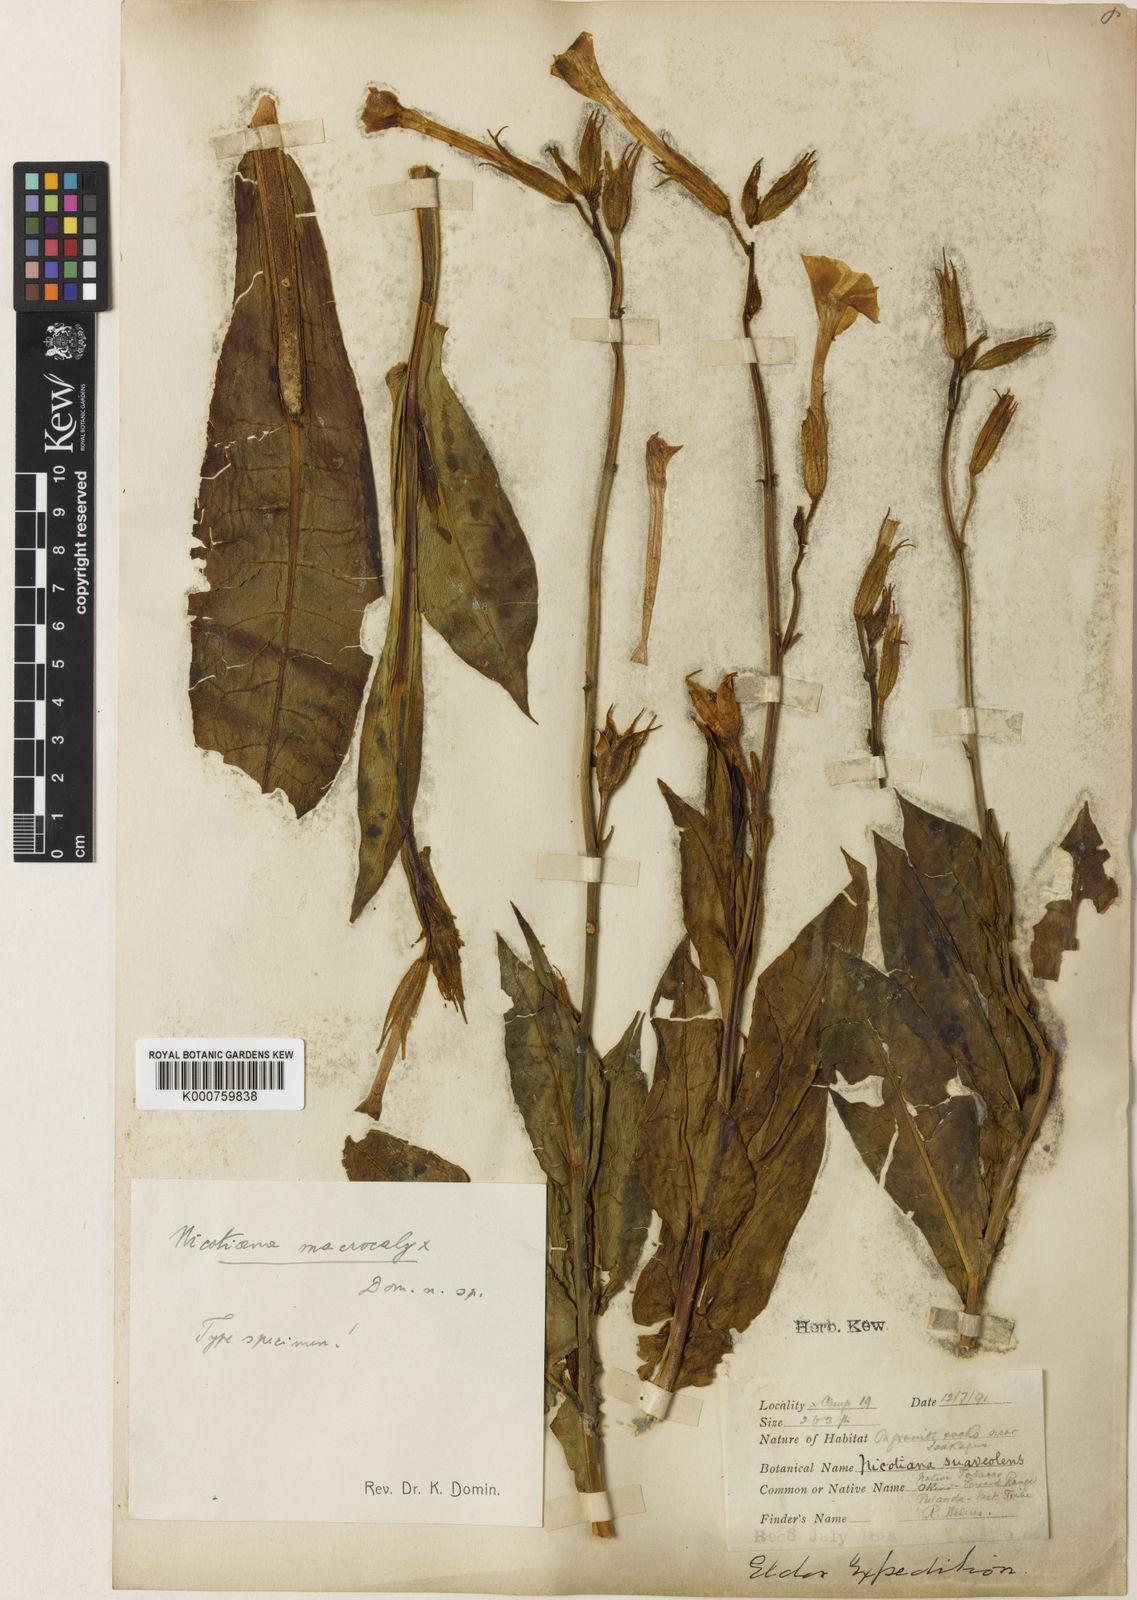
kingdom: Plantae
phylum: Tracheophyta
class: Magnoliopsida
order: Solanales
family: Solanaceae
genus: Nicotiana
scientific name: Nicotiana excelsior
